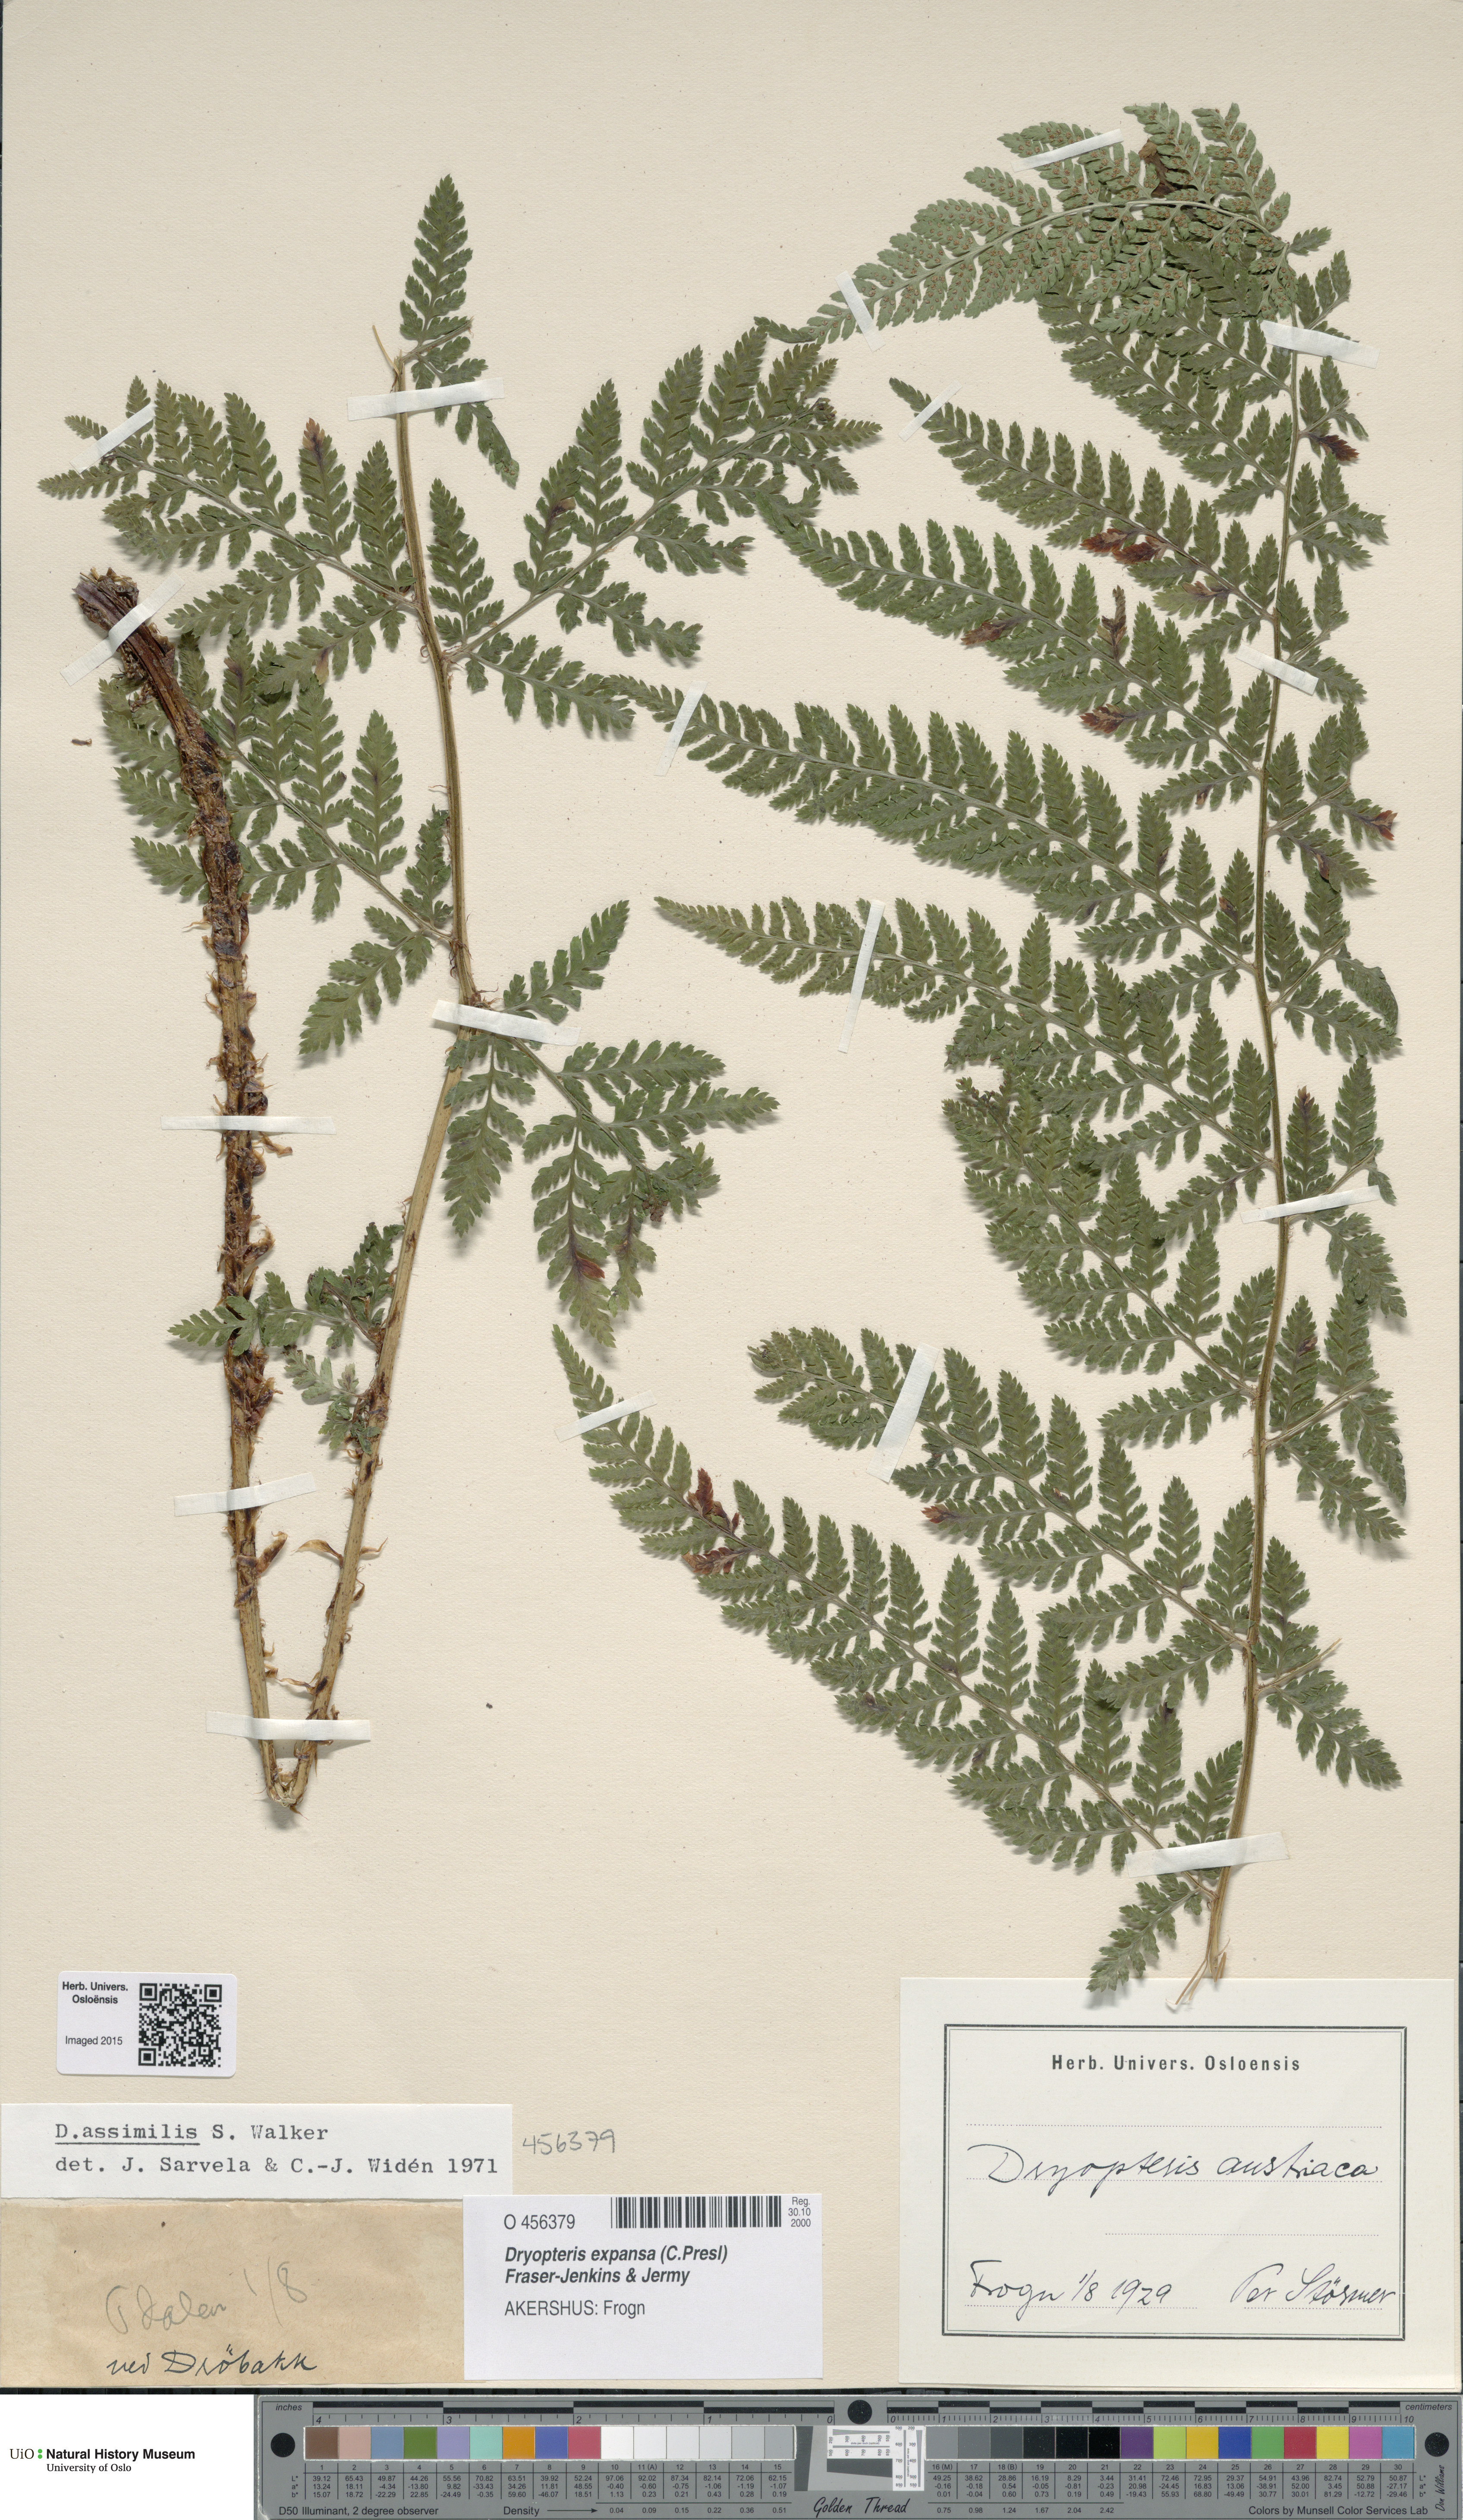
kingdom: Plantae
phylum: Tracheophyta
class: Polypodiopsida
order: Polypodiales
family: Dryopteridaceae
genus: Dryopteris
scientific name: Dryopteris expansa
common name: Northern buckler fern
